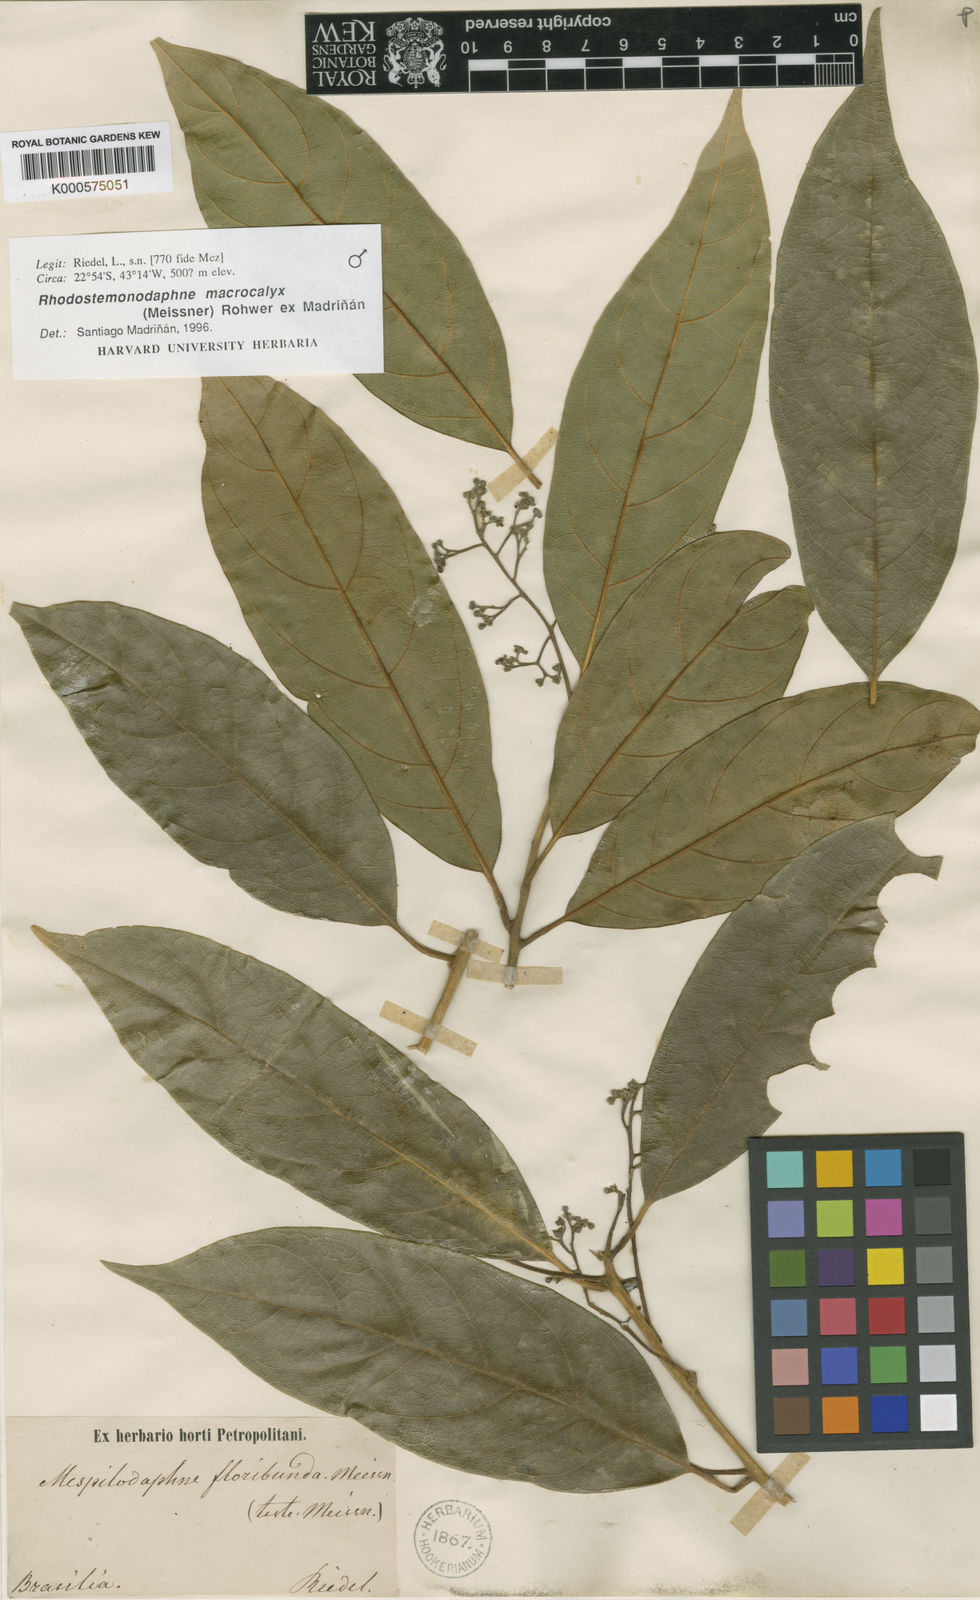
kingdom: Plantae
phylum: Tracheophyta
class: Magnoliopsida
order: Laurales
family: Lauraceae
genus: Rhodostemonodaphne
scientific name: Rhodostemonodaphne
